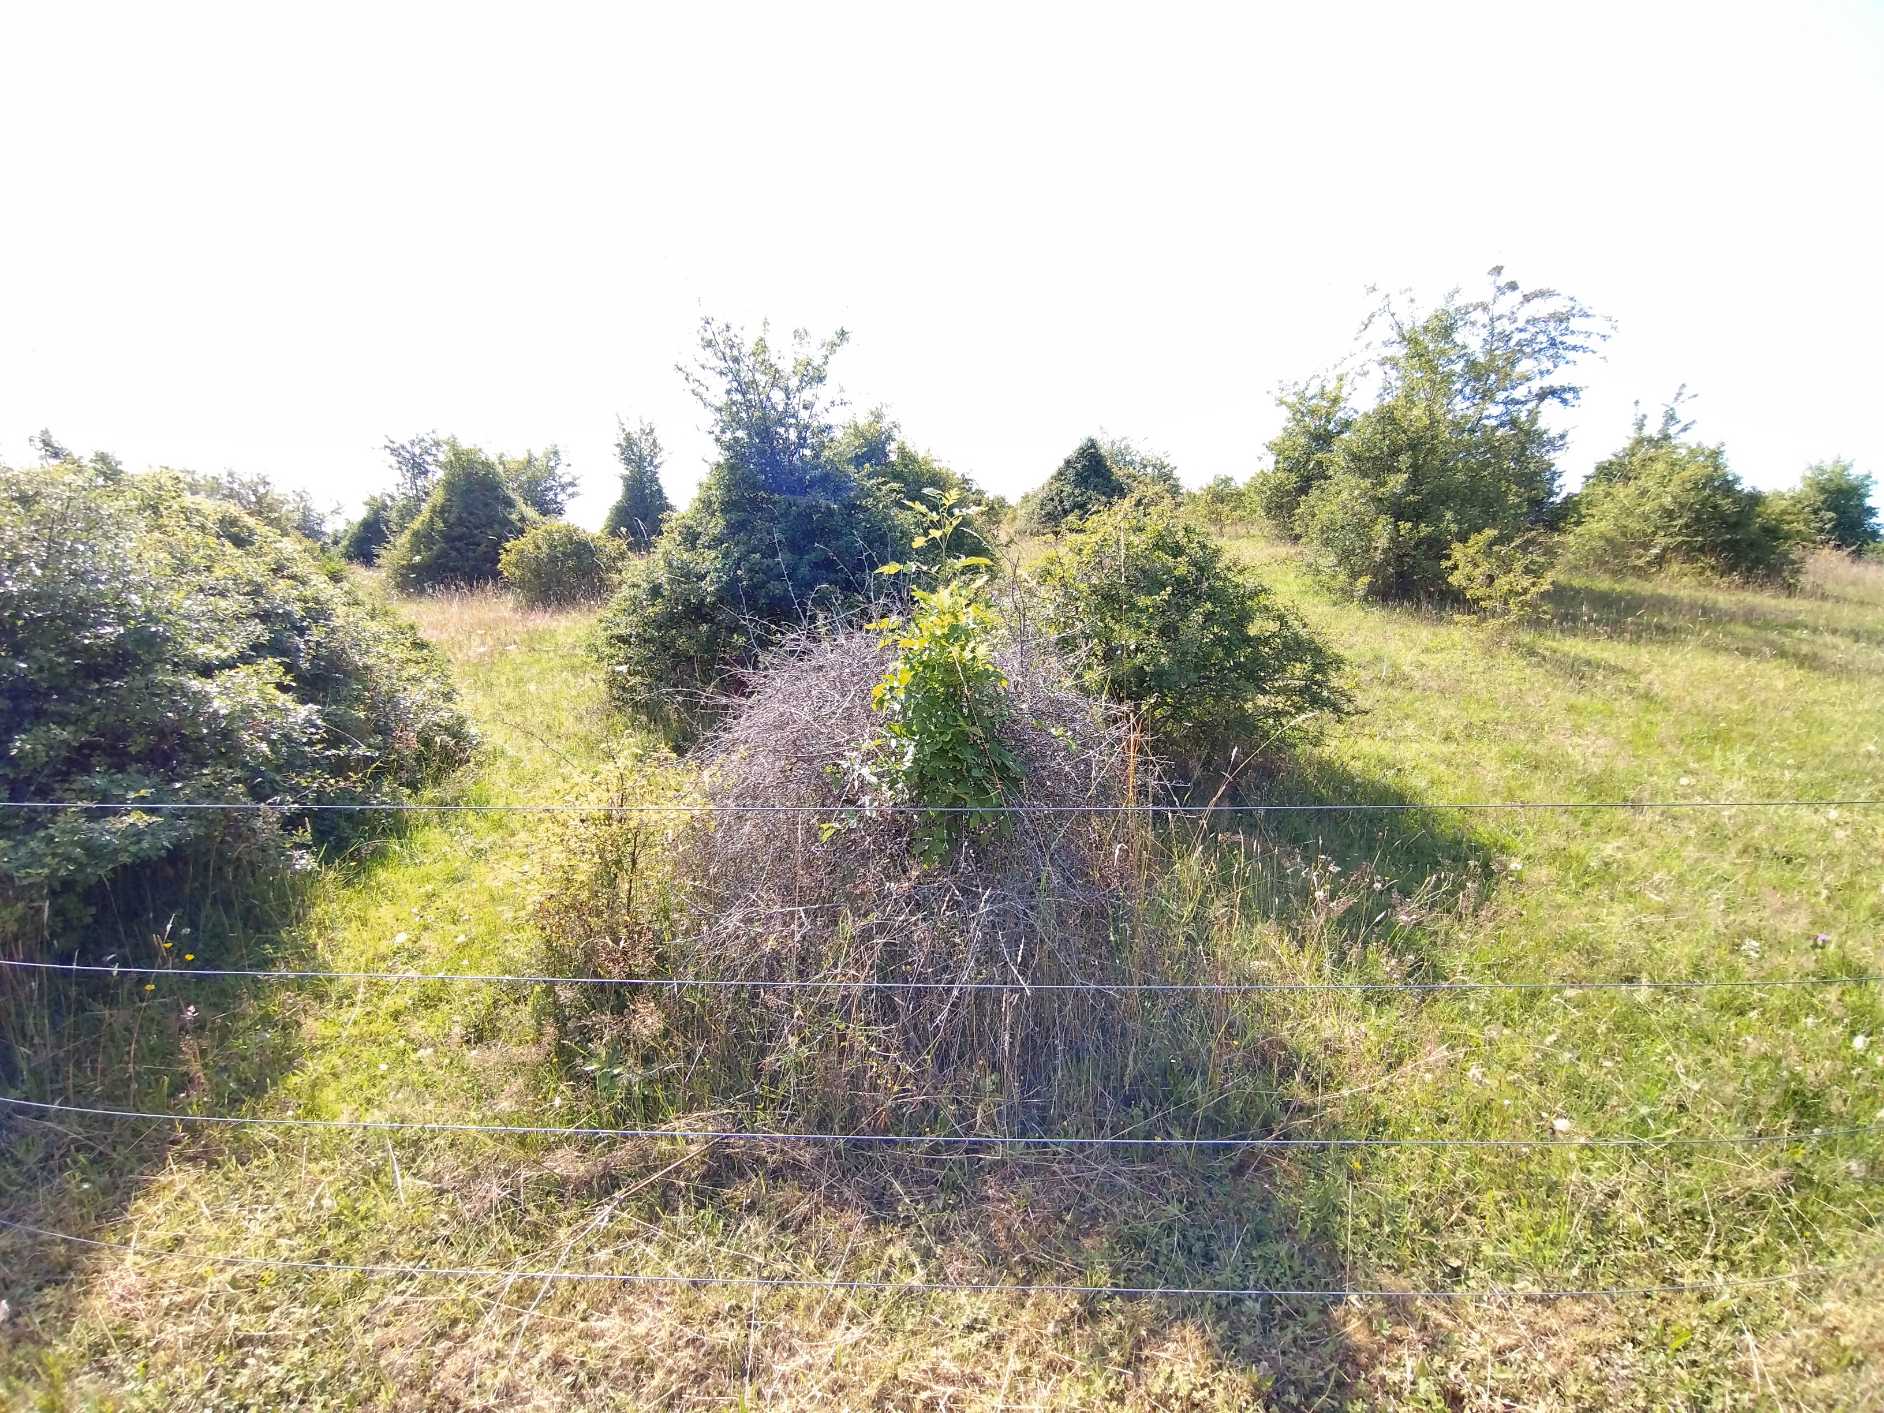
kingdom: Plantae
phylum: Tracheophyta
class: Magnoliopsida
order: Lamiales
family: Oleaceae
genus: Fraxinus
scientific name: Fraxinus excelsior
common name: Ask
